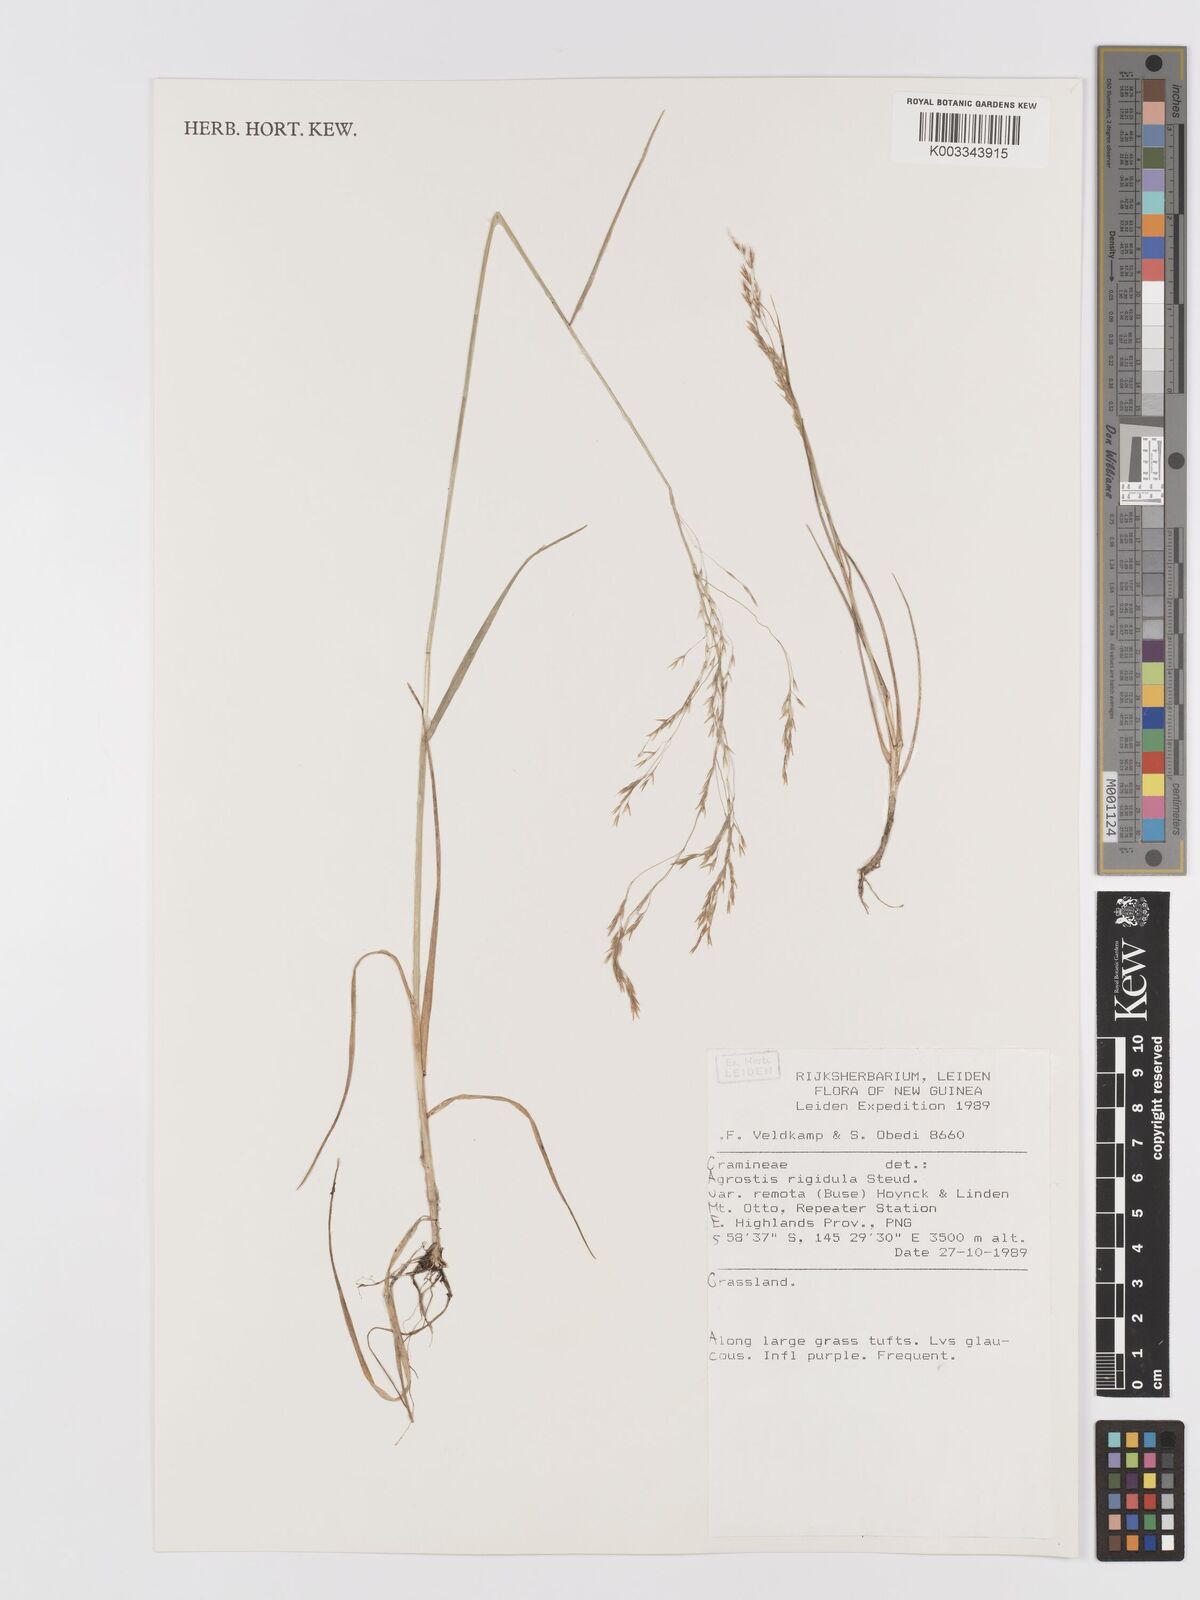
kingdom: Plantae
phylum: Tracheophyta
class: Liliopsida
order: Poales
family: Poaceae
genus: Agrostis
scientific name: Agrostis infirma
